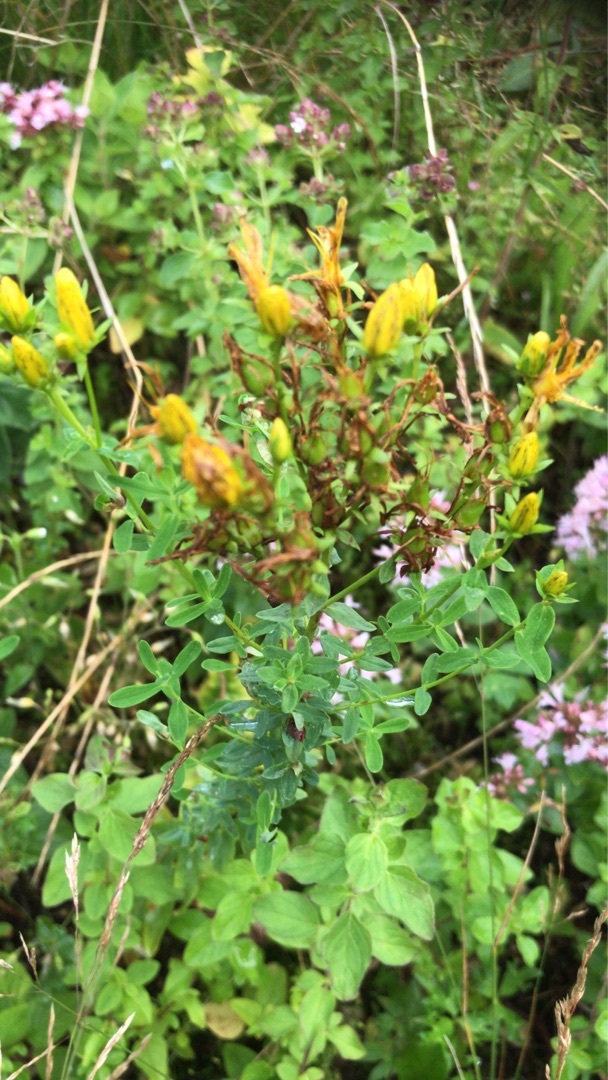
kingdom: Plantae
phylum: Tracheophyta
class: Magnoliopsida
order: Malpighiales
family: Hypericaceae
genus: Hypericum
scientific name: Hypericum perforatum
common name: Prikbladet perikon
